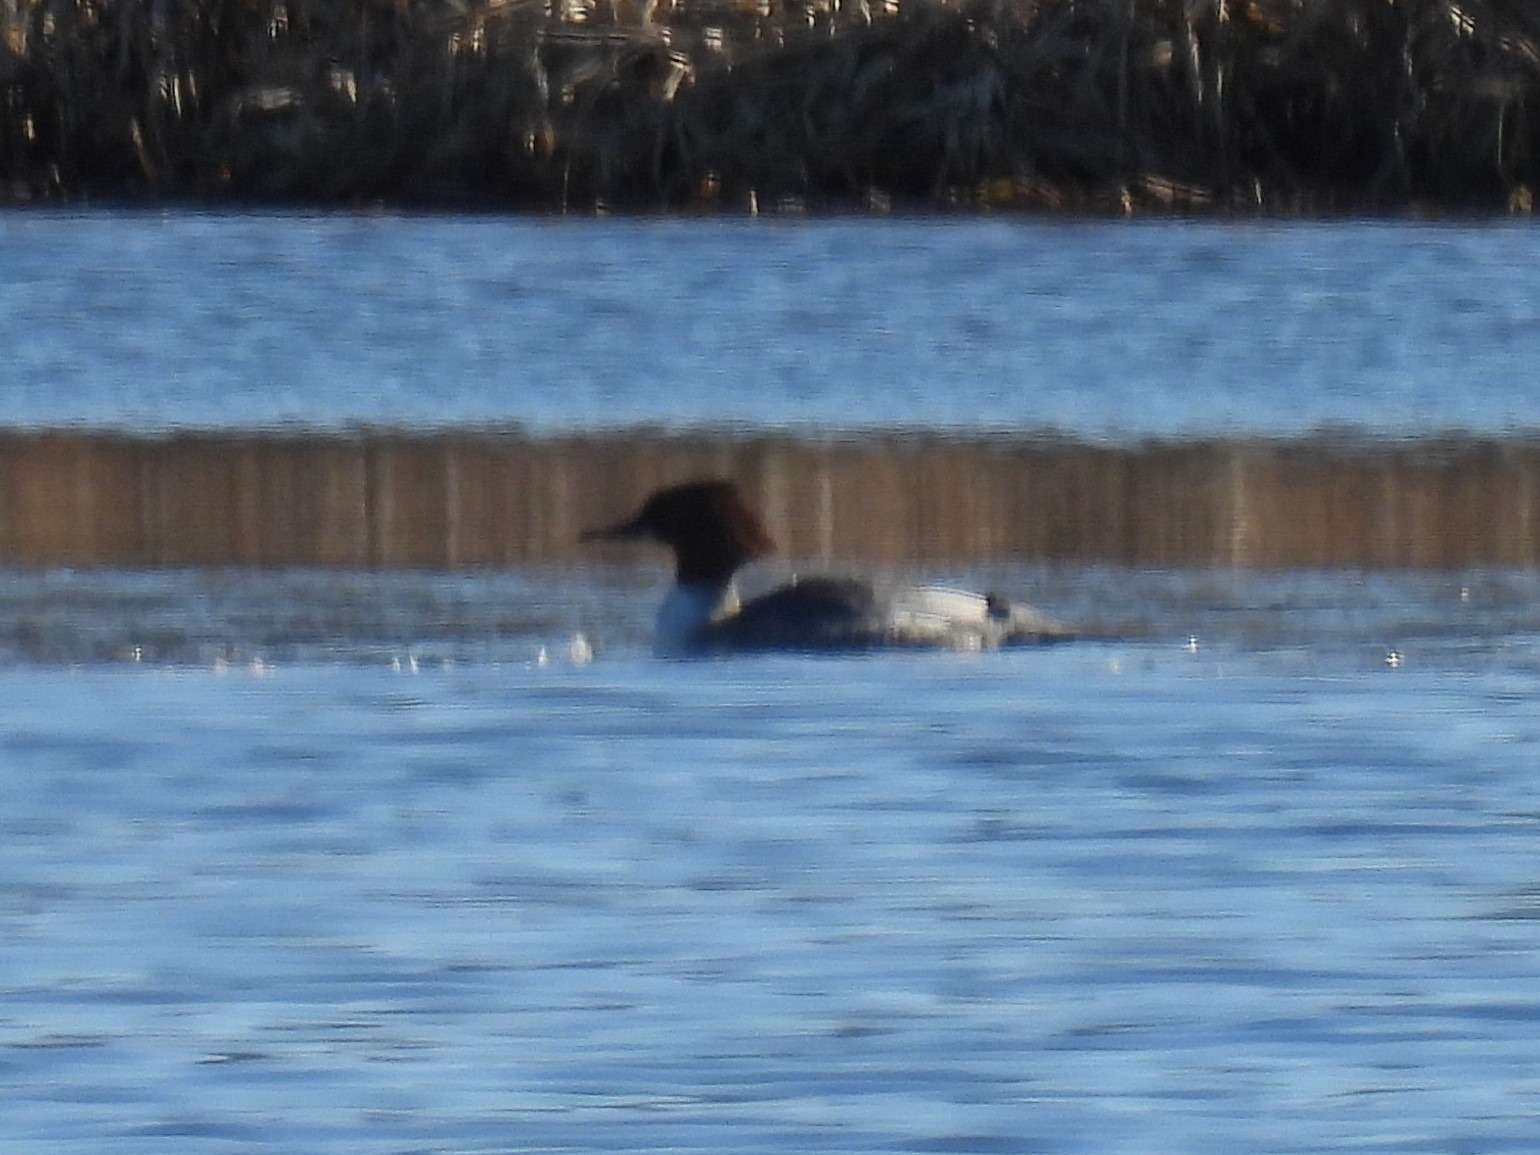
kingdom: Animalia
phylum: Chordata
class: Aves
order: Anseriformes
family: Anatidae
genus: Mergus
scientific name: Mergus merganser
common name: Stor skallesluger
